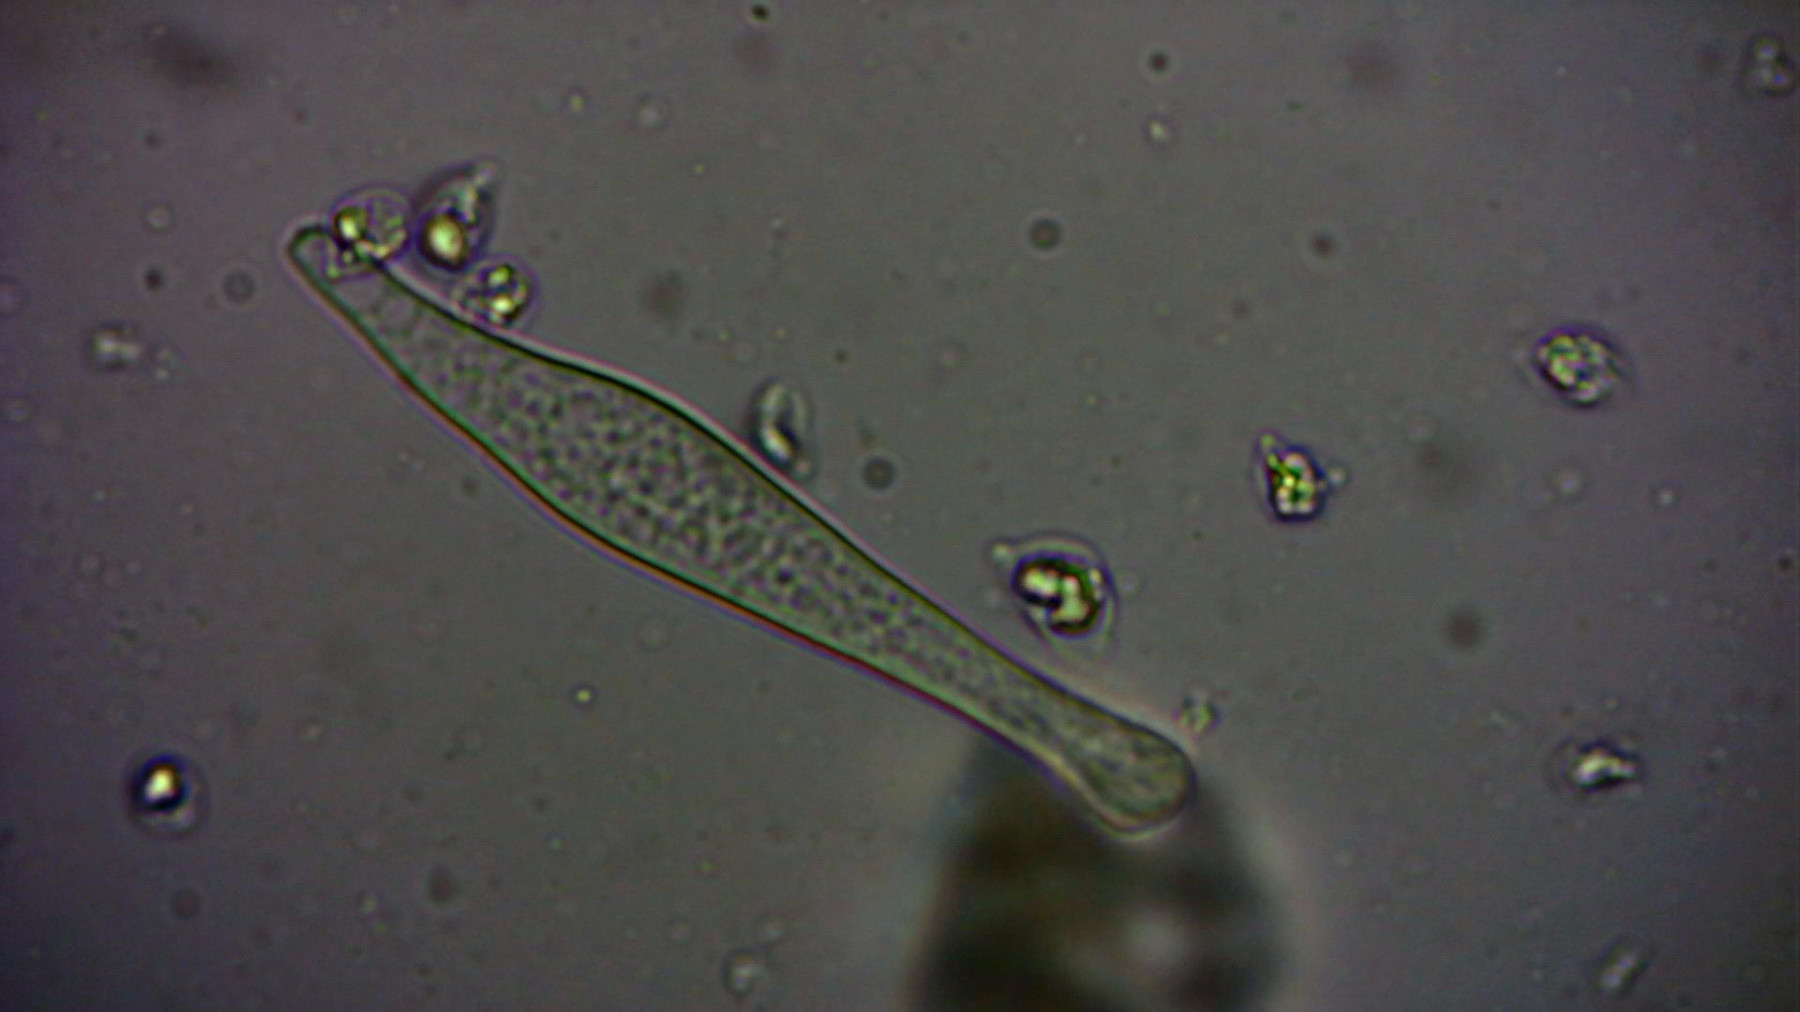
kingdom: Fungi
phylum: Basidiomycota
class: Agaricomycetes
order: Agaricales
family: Mycenaceae
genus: Mycena
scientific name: Mycena galopus
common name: hvidmælket huesvamp
